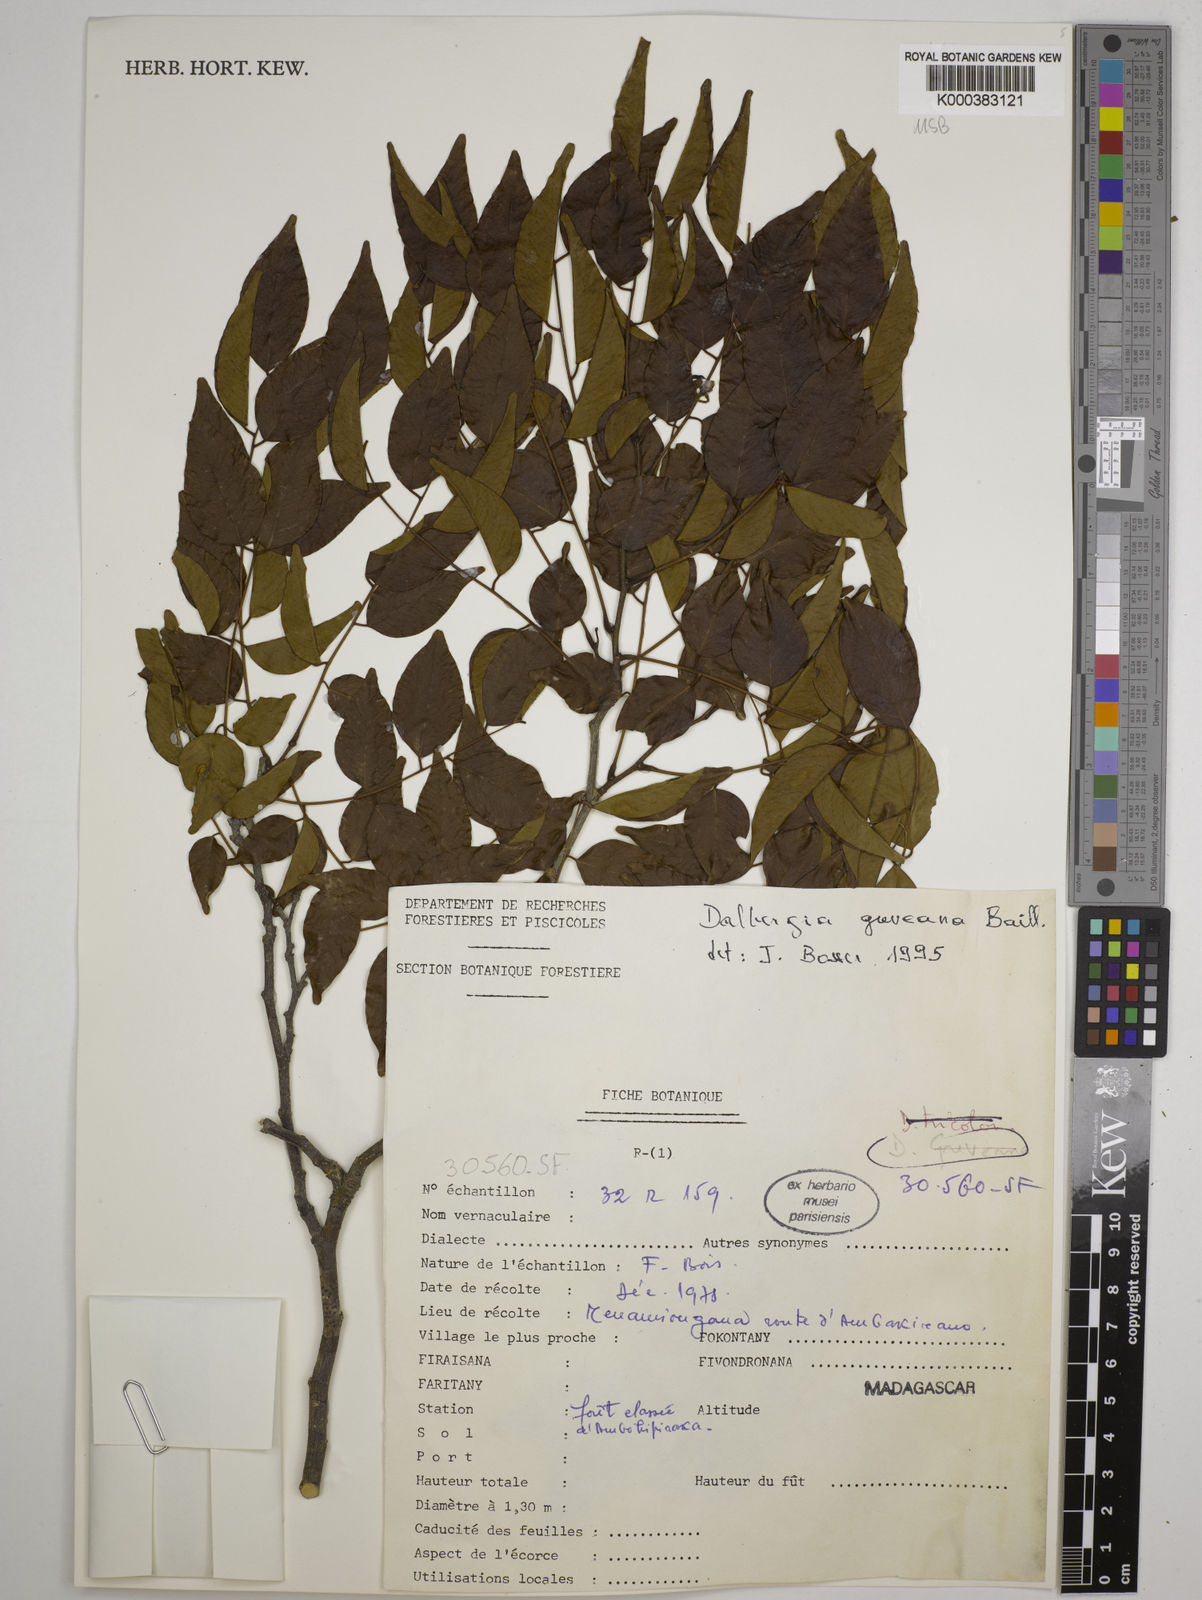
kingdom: Plantae
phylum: Tracheophyta
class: Magnoliopsida
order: Fabales
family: Fabaceae
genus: Dalbergia
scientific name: Dalbergia greveana
